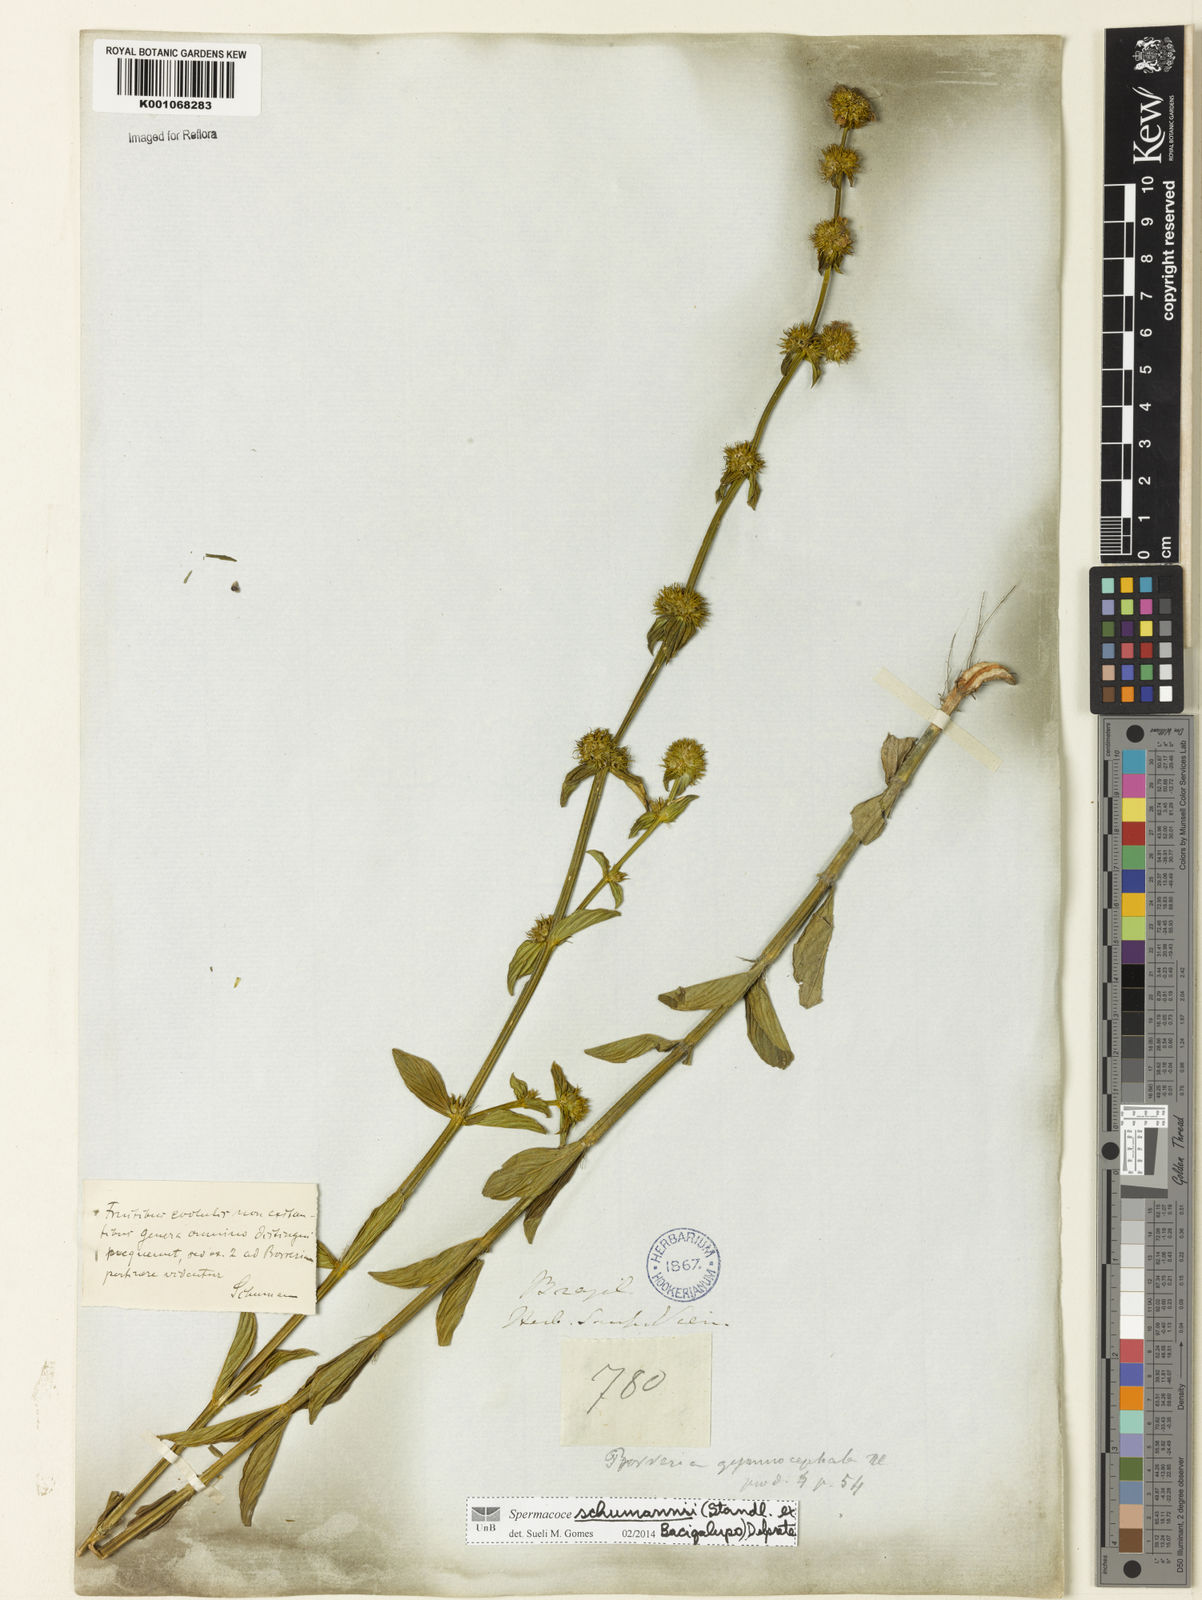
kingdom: Plantae
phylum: Tracheophyta
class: Magnoliopsida
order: Gentianales
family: Rubiaceae
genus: Spermacoce
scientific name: Spermacoce schumannii
